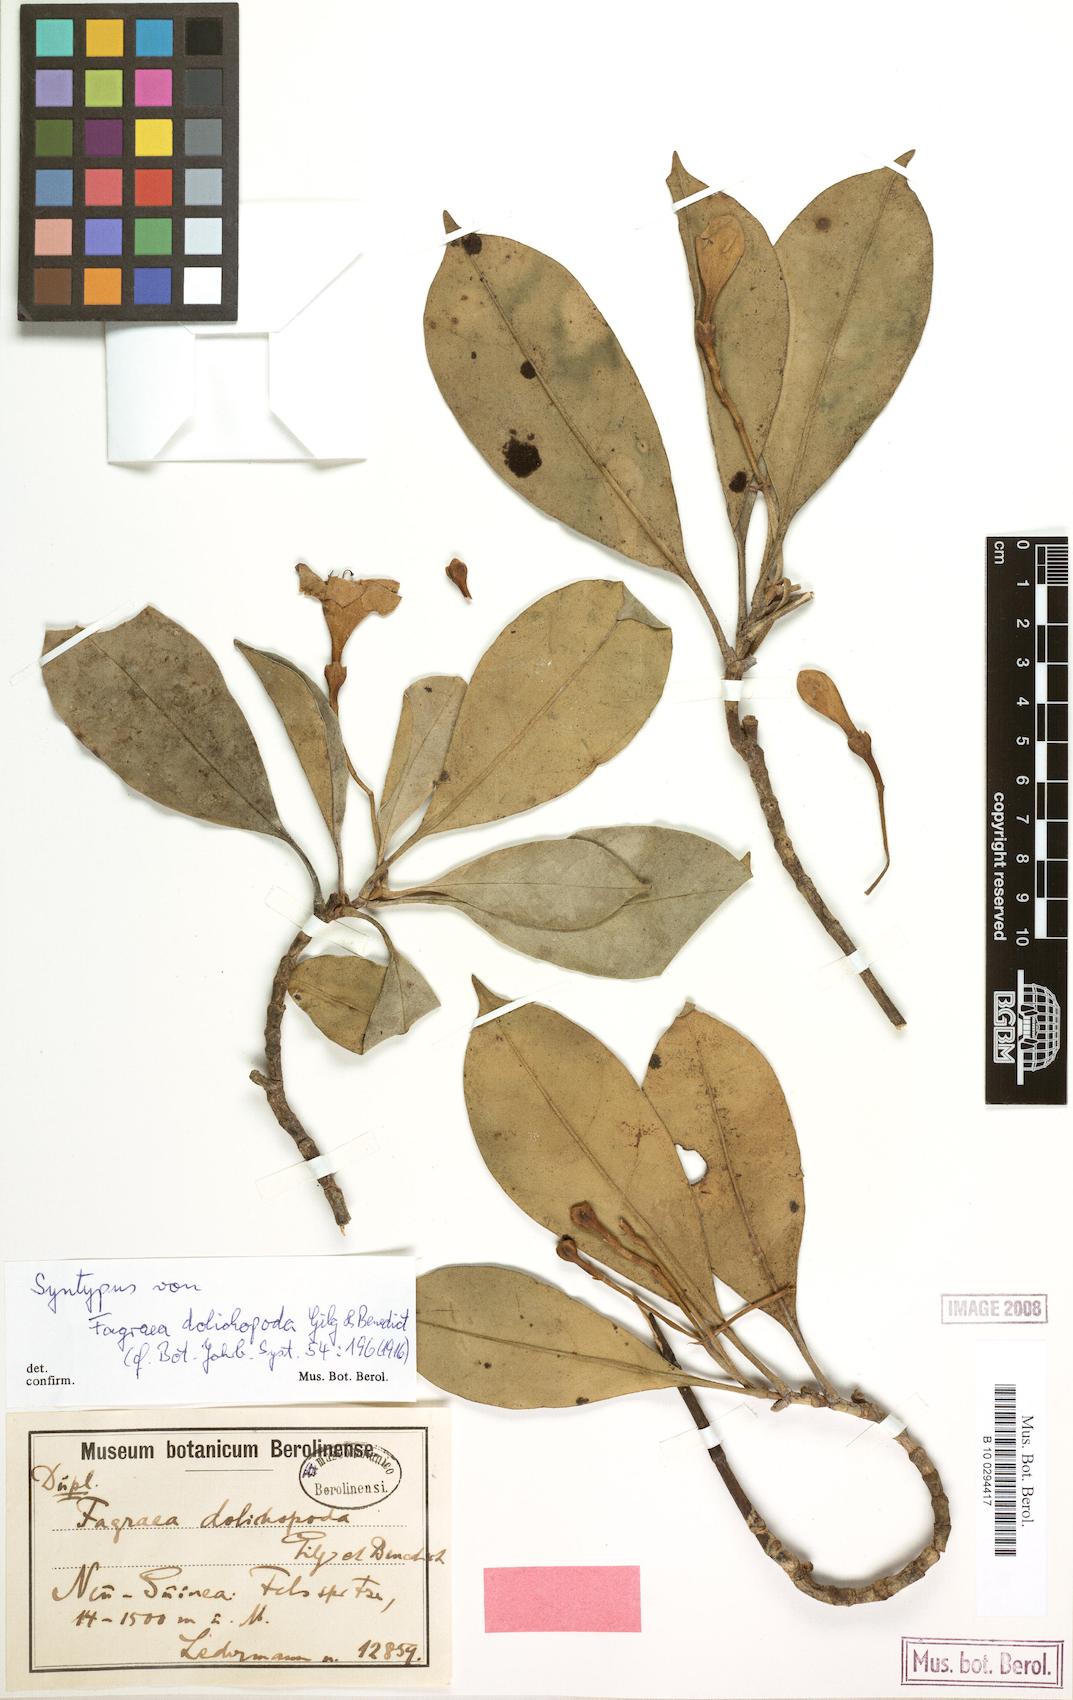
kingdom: Plantae
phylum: Tracheophyta
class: Magnoliopsida
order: Gentianales
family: Gentianaceae
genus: Fagraea
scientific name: Fagraea gracilipes
